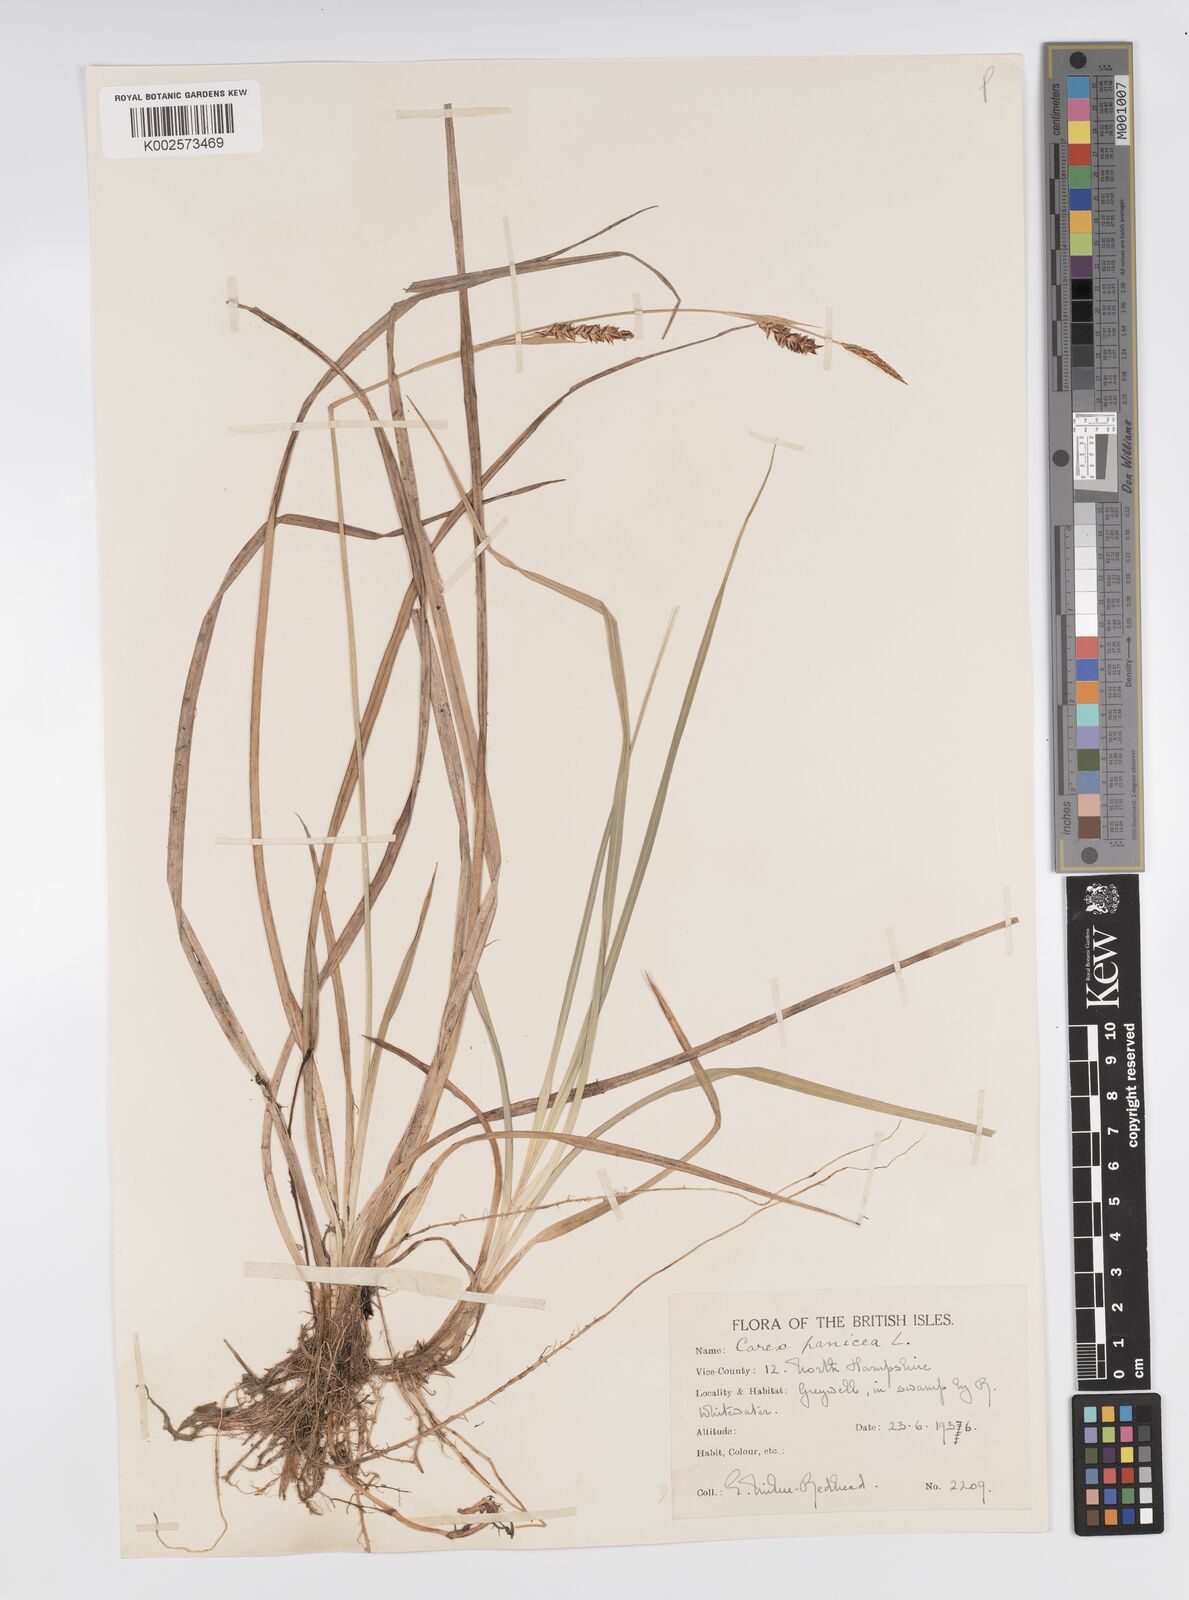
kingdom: Plantae
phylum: Tracheophyta
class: Liliopsida
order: Poales
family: Cyperaceae
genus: Carex
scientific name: Carex panicea
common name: Carnation sedge
